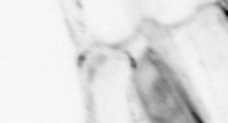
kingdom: Animalia
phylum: Chaetognatha
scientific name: Chaetognatha
